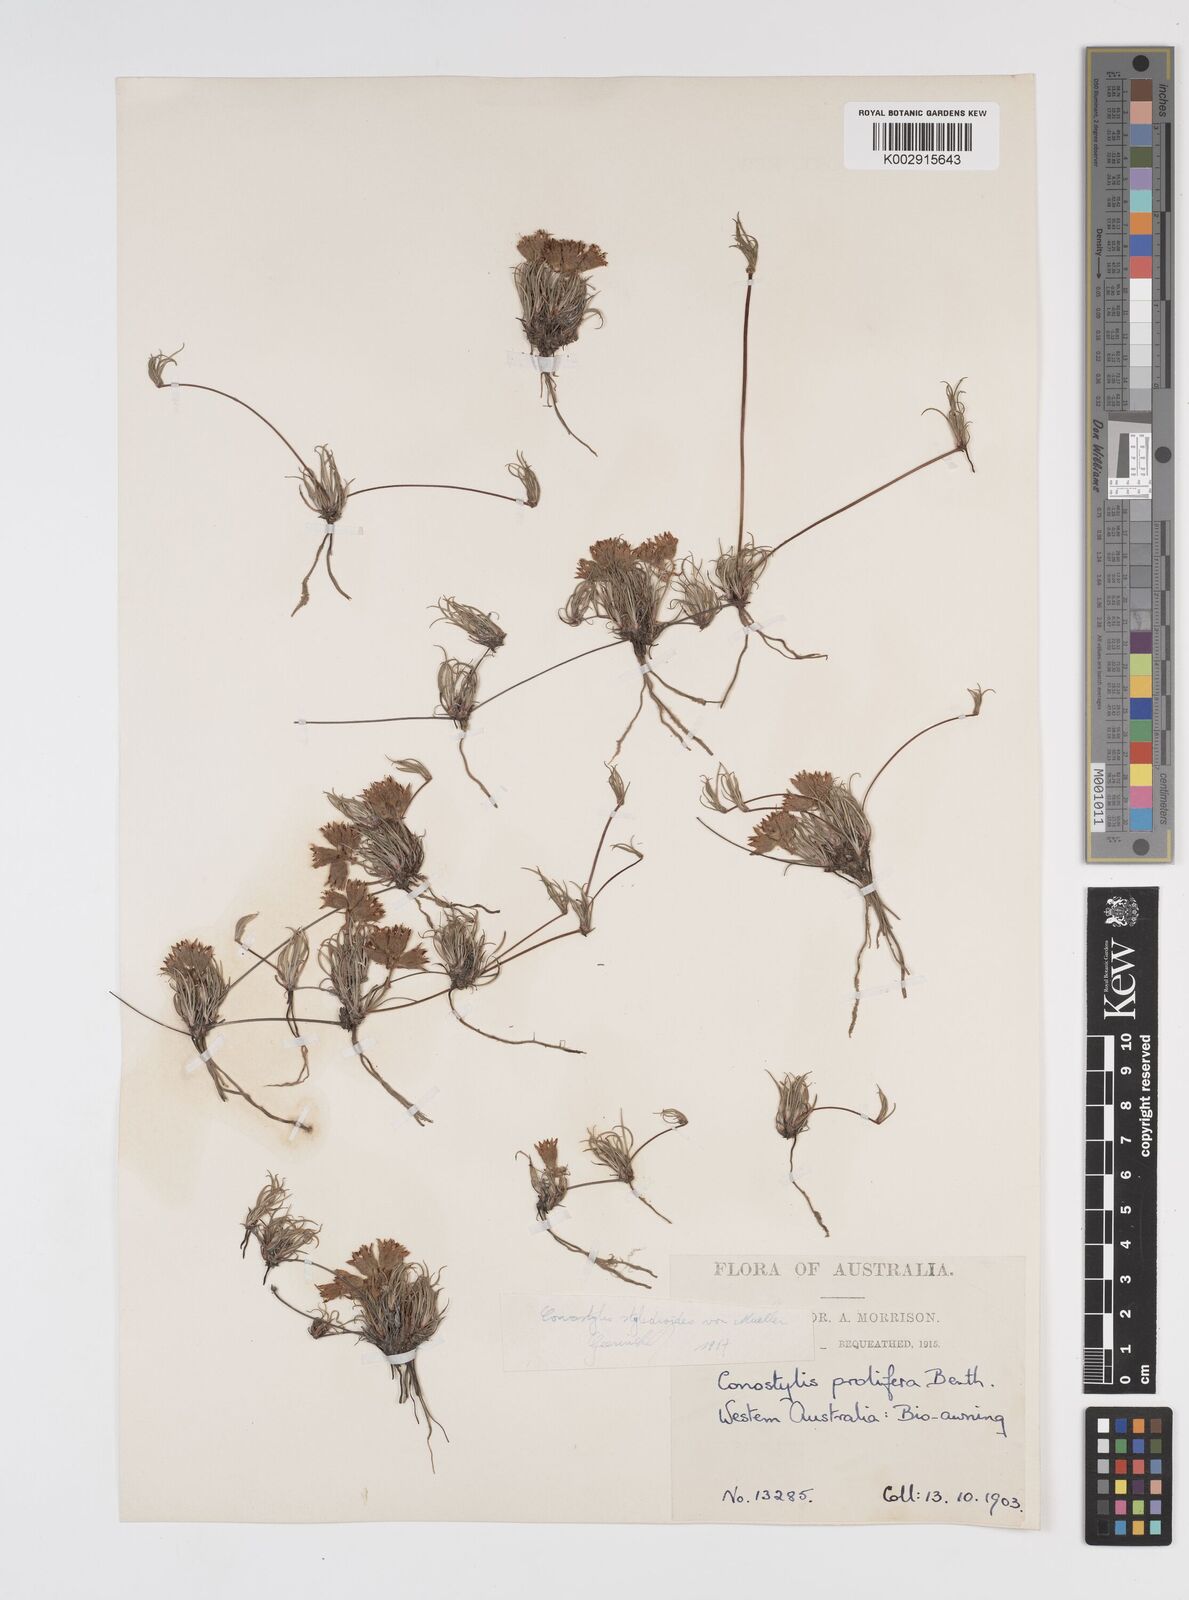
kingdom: Plantae
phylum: Tracheophyta
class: Liliopsida
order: Commelinales
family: Haemodoraceae
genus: Conostylis
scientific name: Conostylis stylidioides
